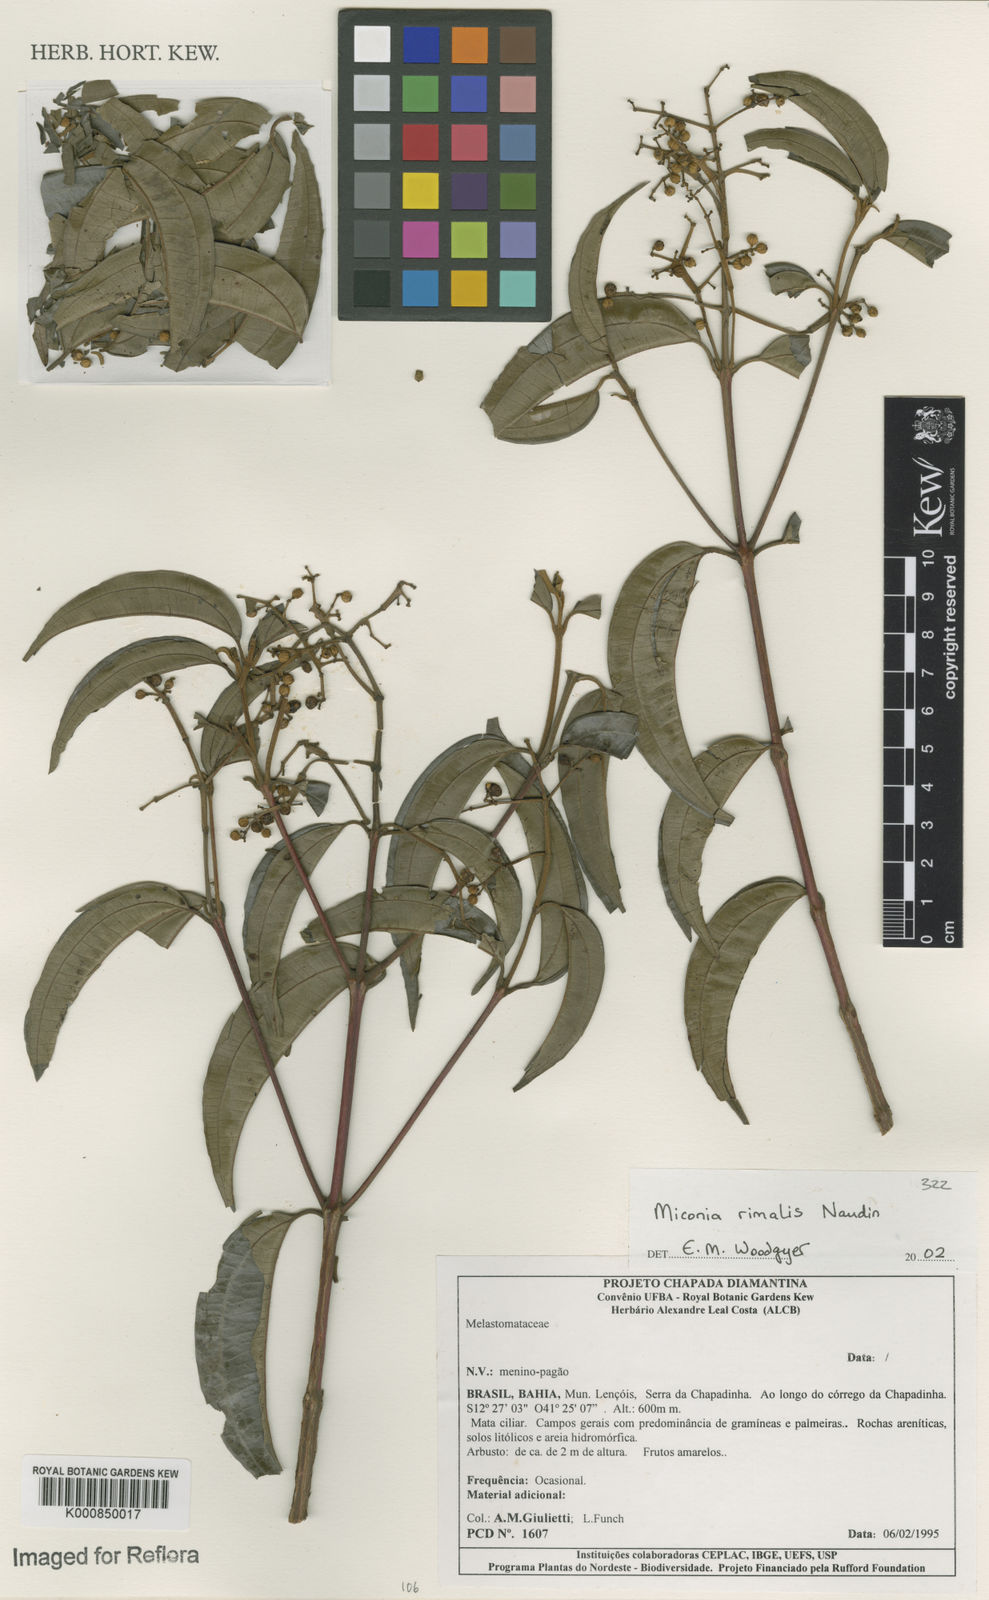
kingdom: Plantae
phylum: Tracheophyta
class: Magnoliopsida
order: Myrtales
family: Melastomataceae
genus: Miconia
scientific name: Miconia
